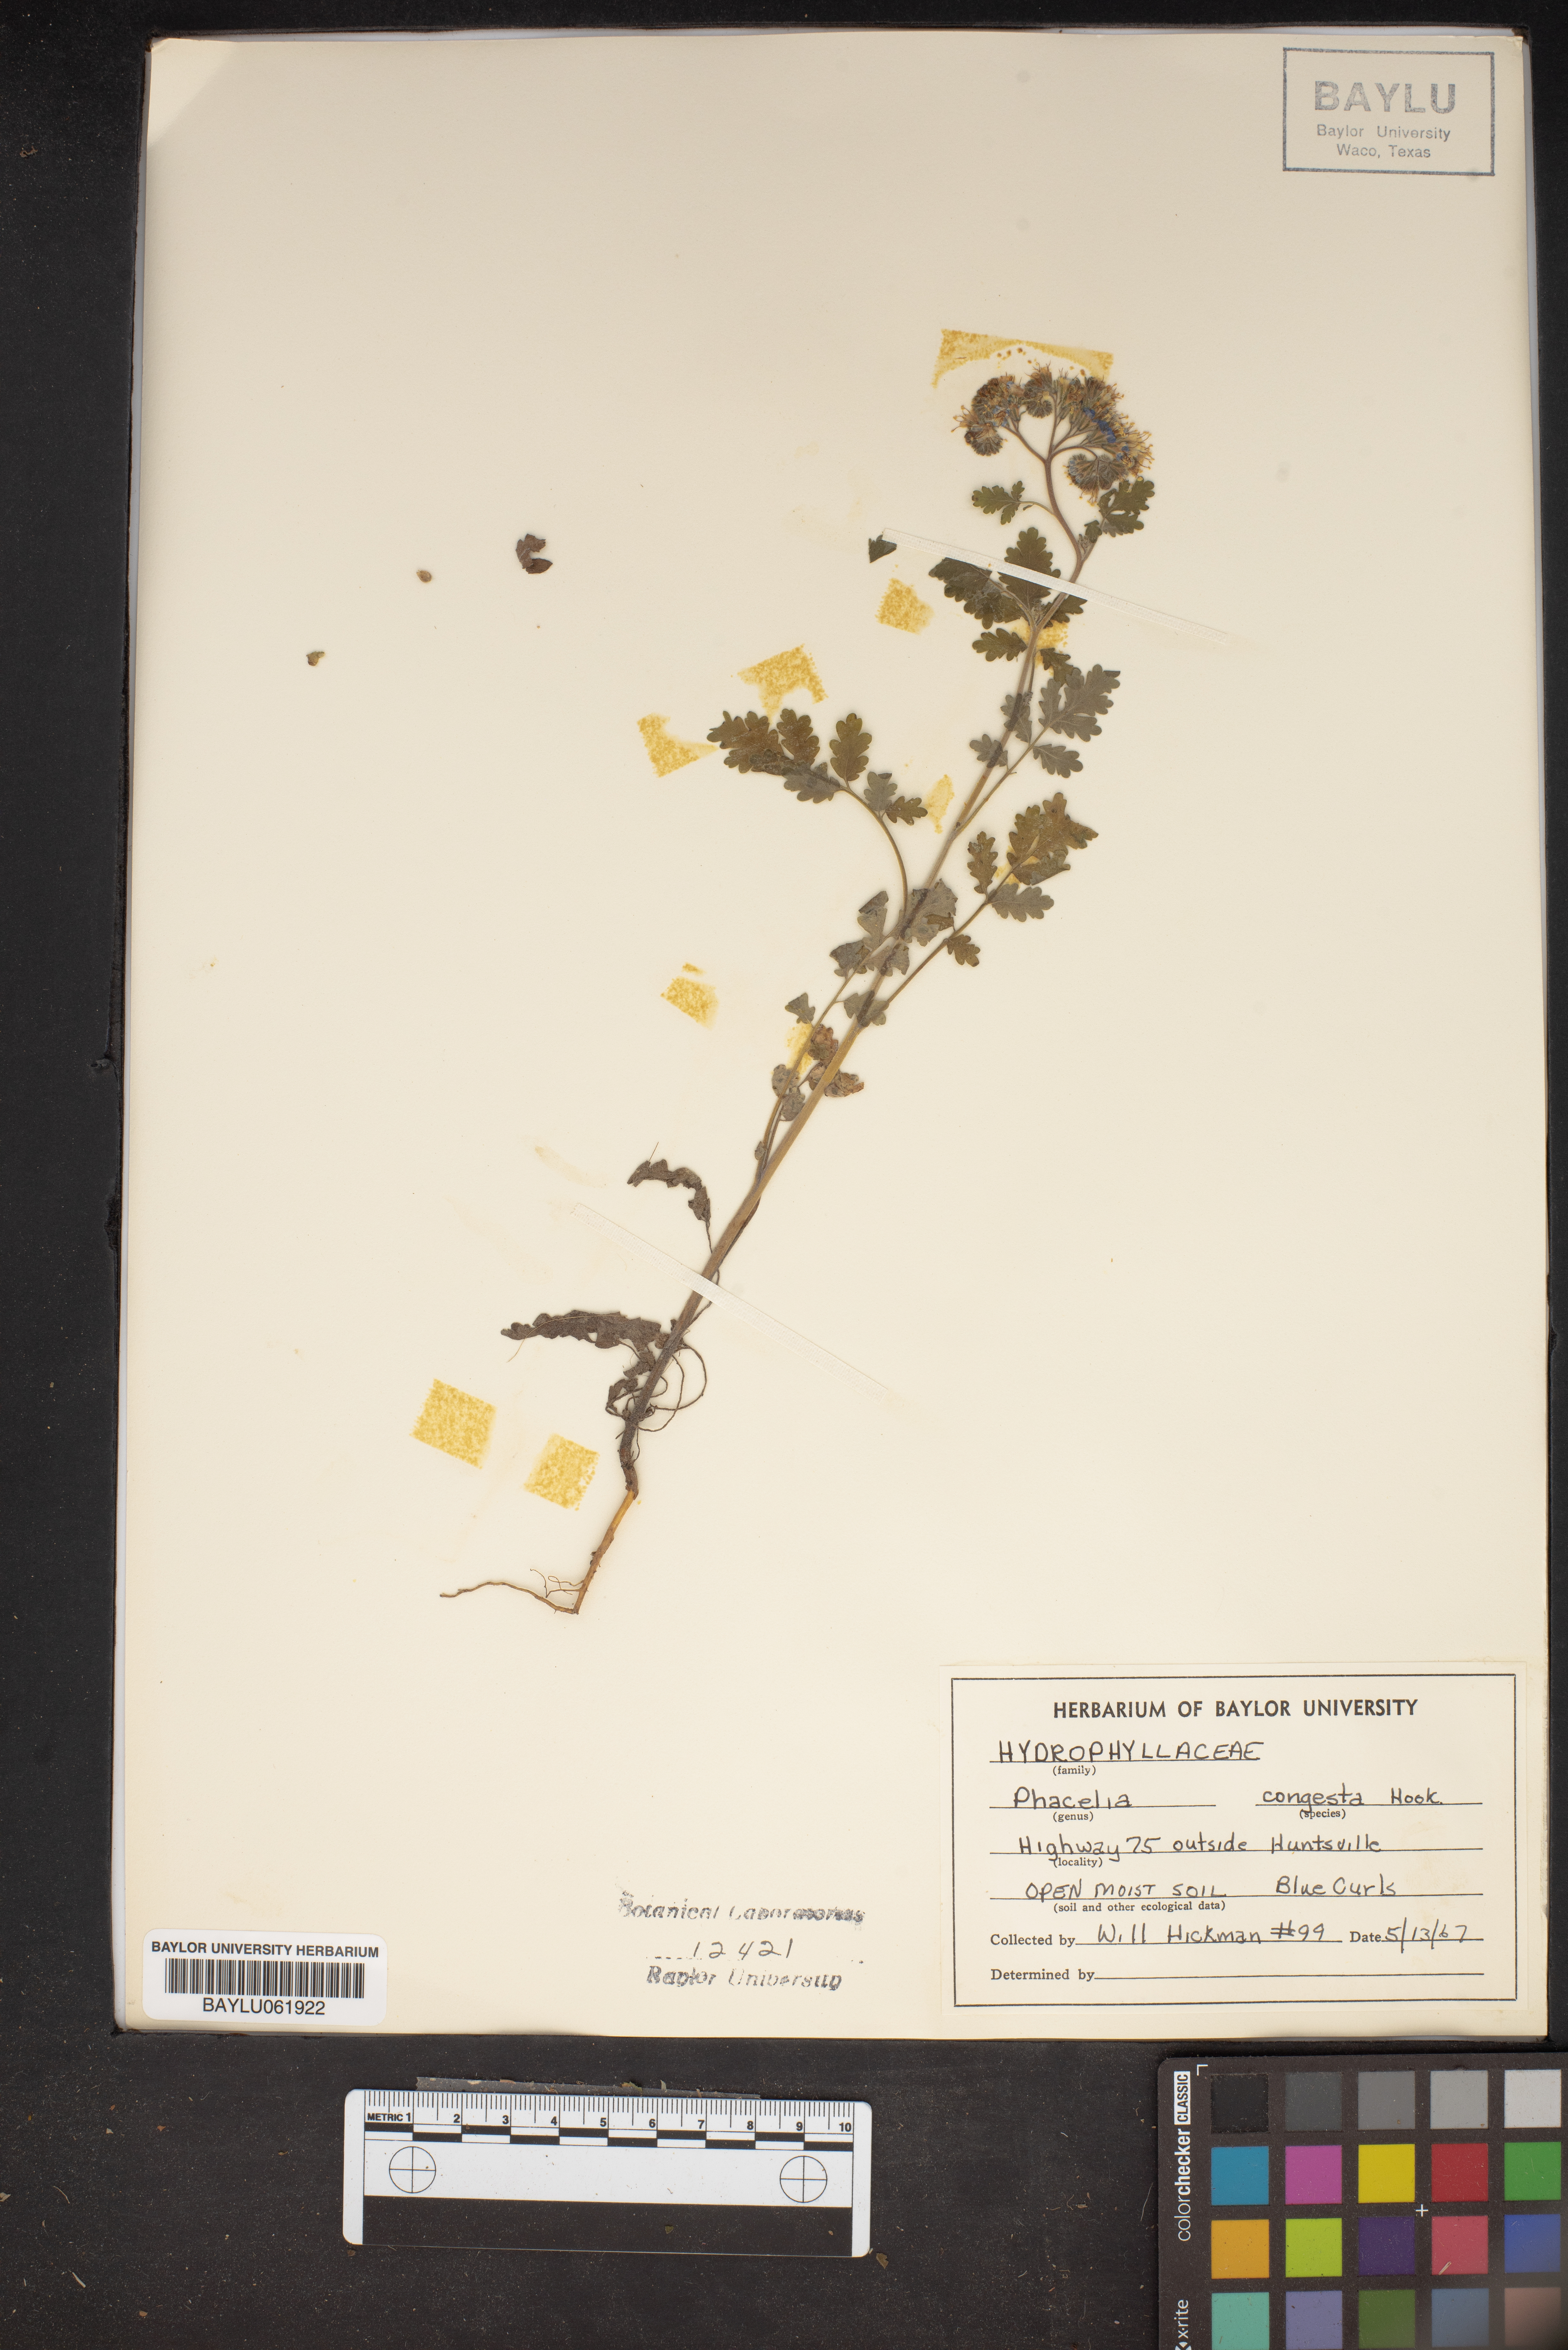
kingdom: Plantae
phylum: Tracheophyta
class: Magnoliopsida
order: Boraginales
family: Hydrophyllaceae
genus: Phacelia
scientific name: Phacelia congesta
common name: Blue curls
